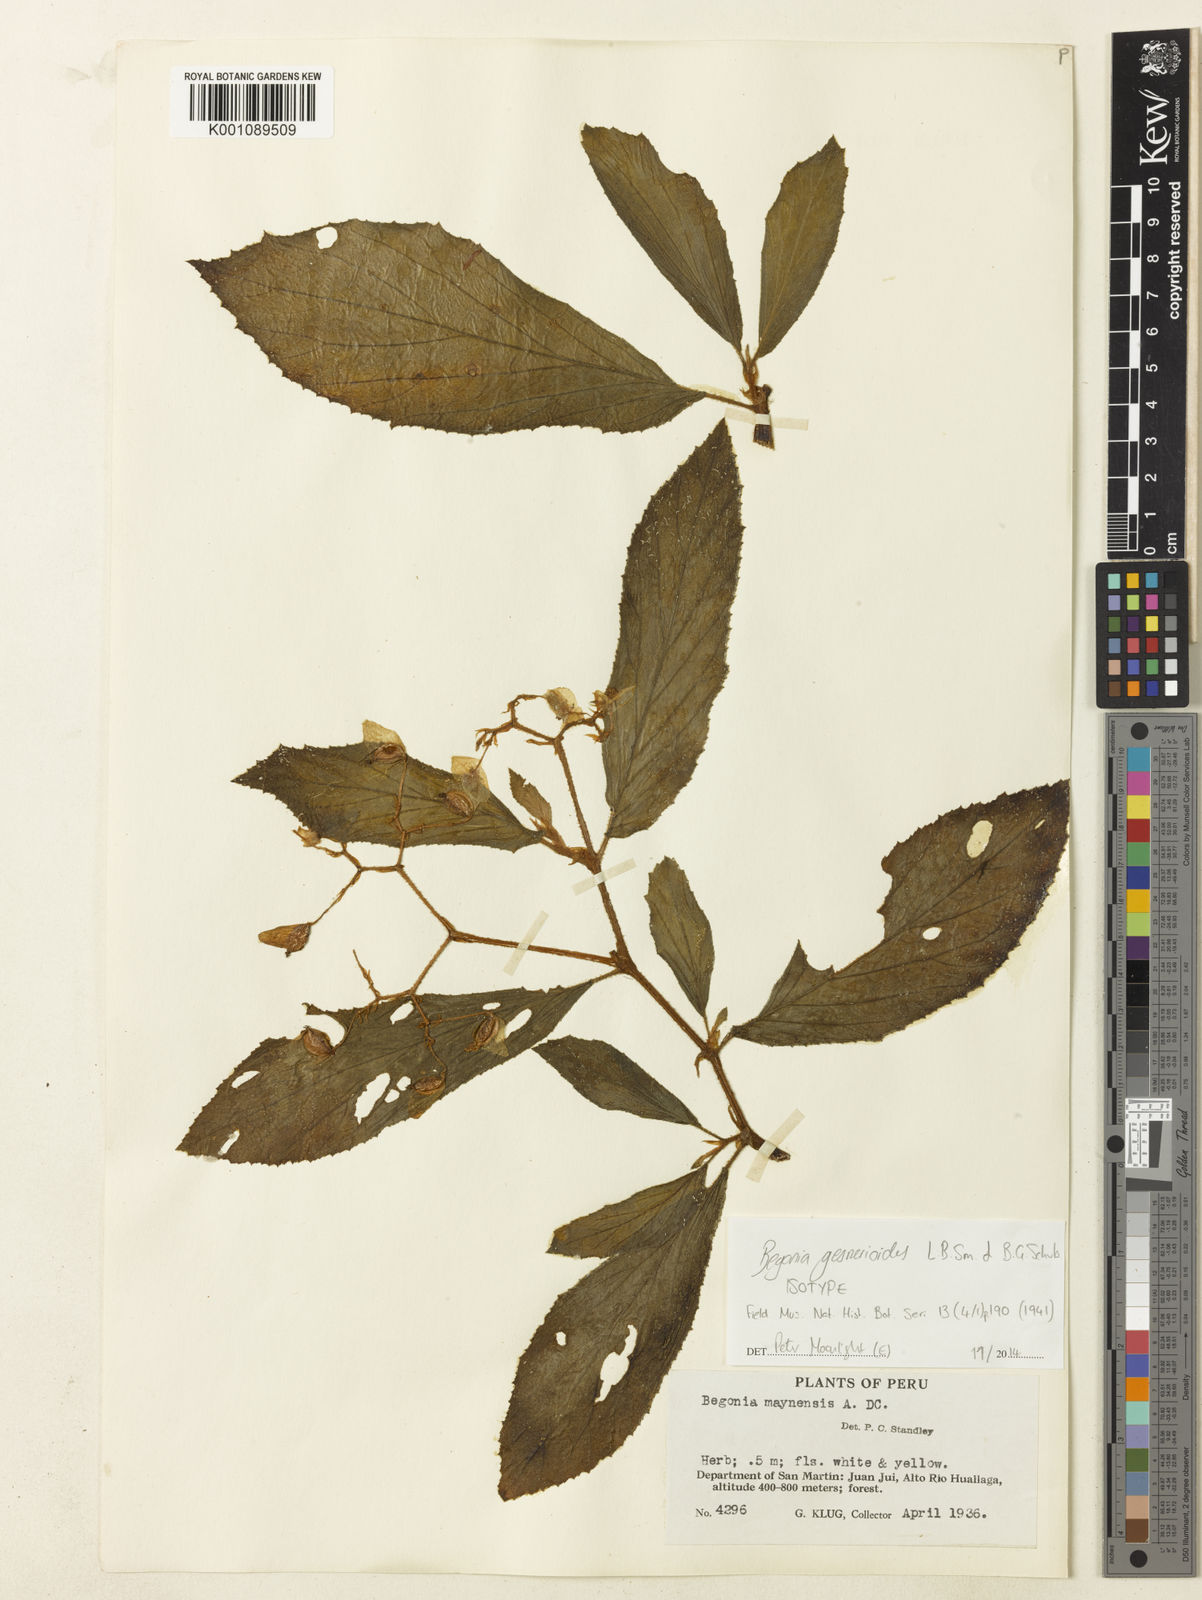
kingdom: Plantae
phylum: Tracheophyta
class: Magnoliopsida
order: Cucurbitales
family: Begoniaceae
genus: Begonia
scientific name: Begonia gesnerioides
